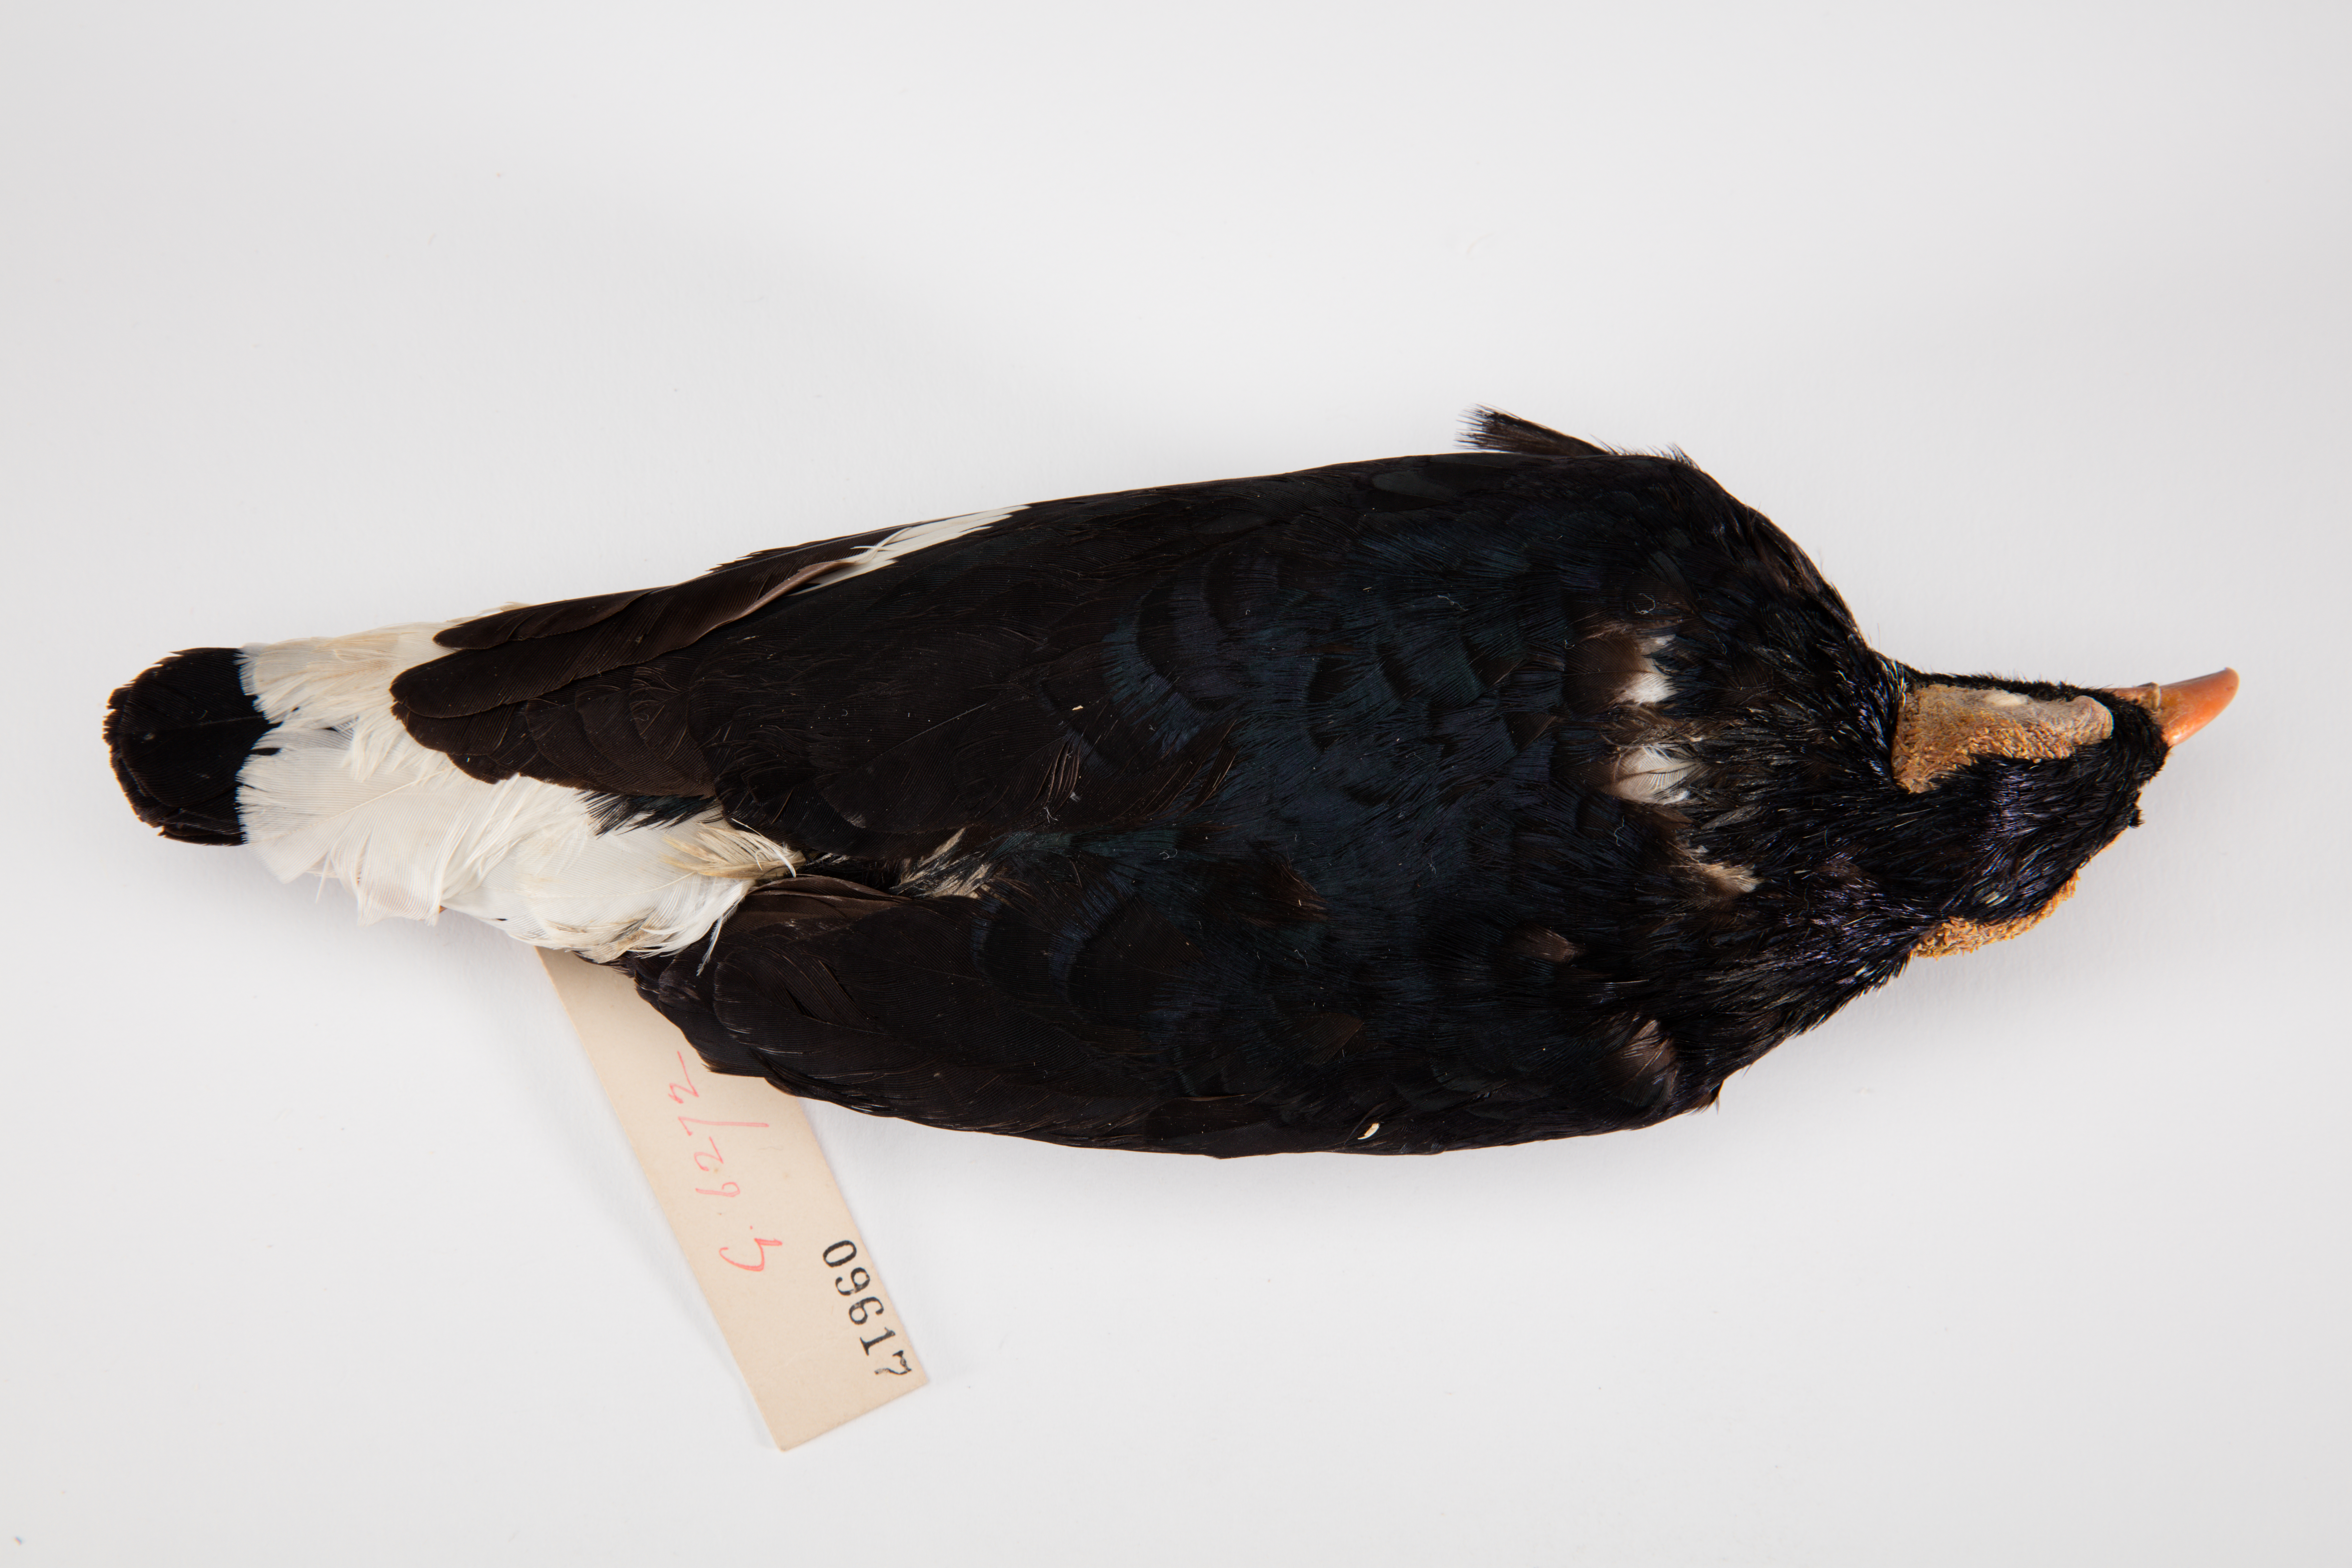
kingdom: Animalia
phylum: Chordata
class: Aves
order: Passeriformes
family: Sturnidae
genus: Mino
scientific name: Mino dumontii
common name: Yellow-faced myna
